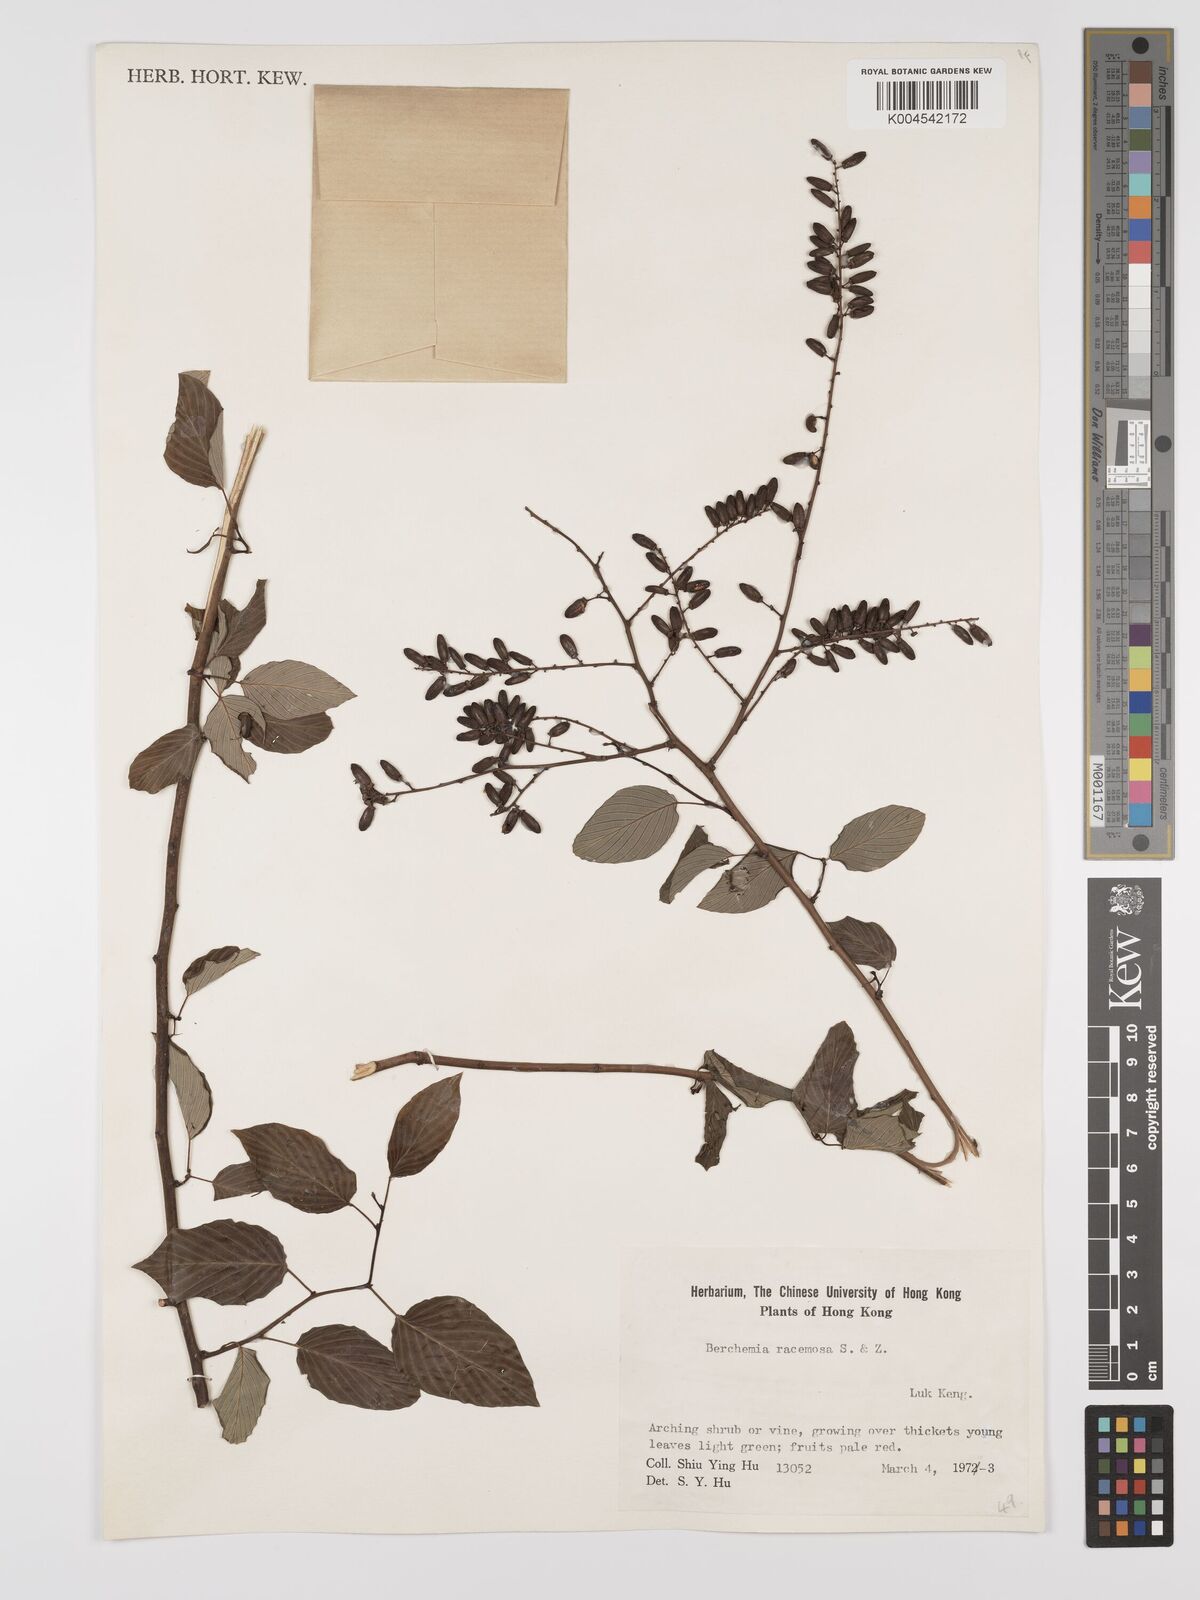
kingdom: Plantae
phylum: Tracheophyta
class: Magnoliopsida
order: Rosales
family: Rhamnaceae
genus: Berchemia
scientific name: Berchemia floribunda
